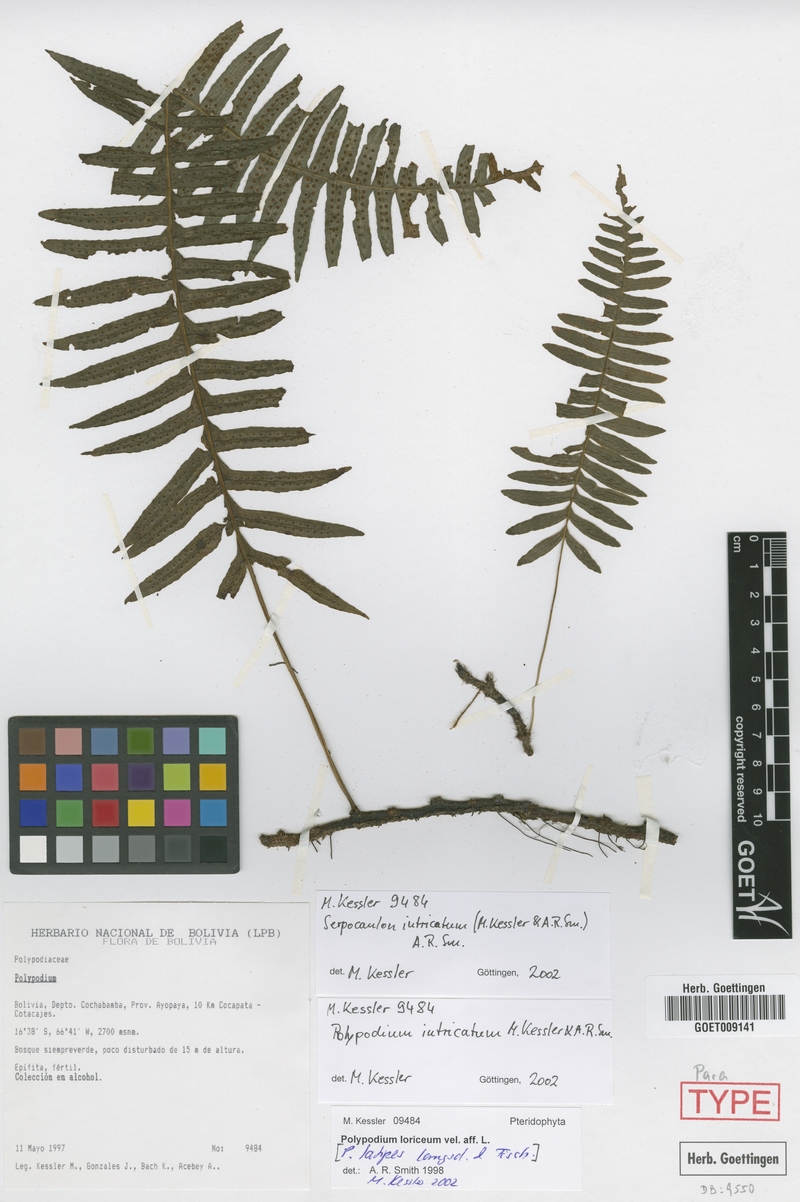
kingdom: Plantae
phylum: Tracheophyta
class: Polypodiopsida
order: Polypodiales
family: Polypodiaceae
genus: Serpocaulon
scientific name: Serpocaulon intricatum
